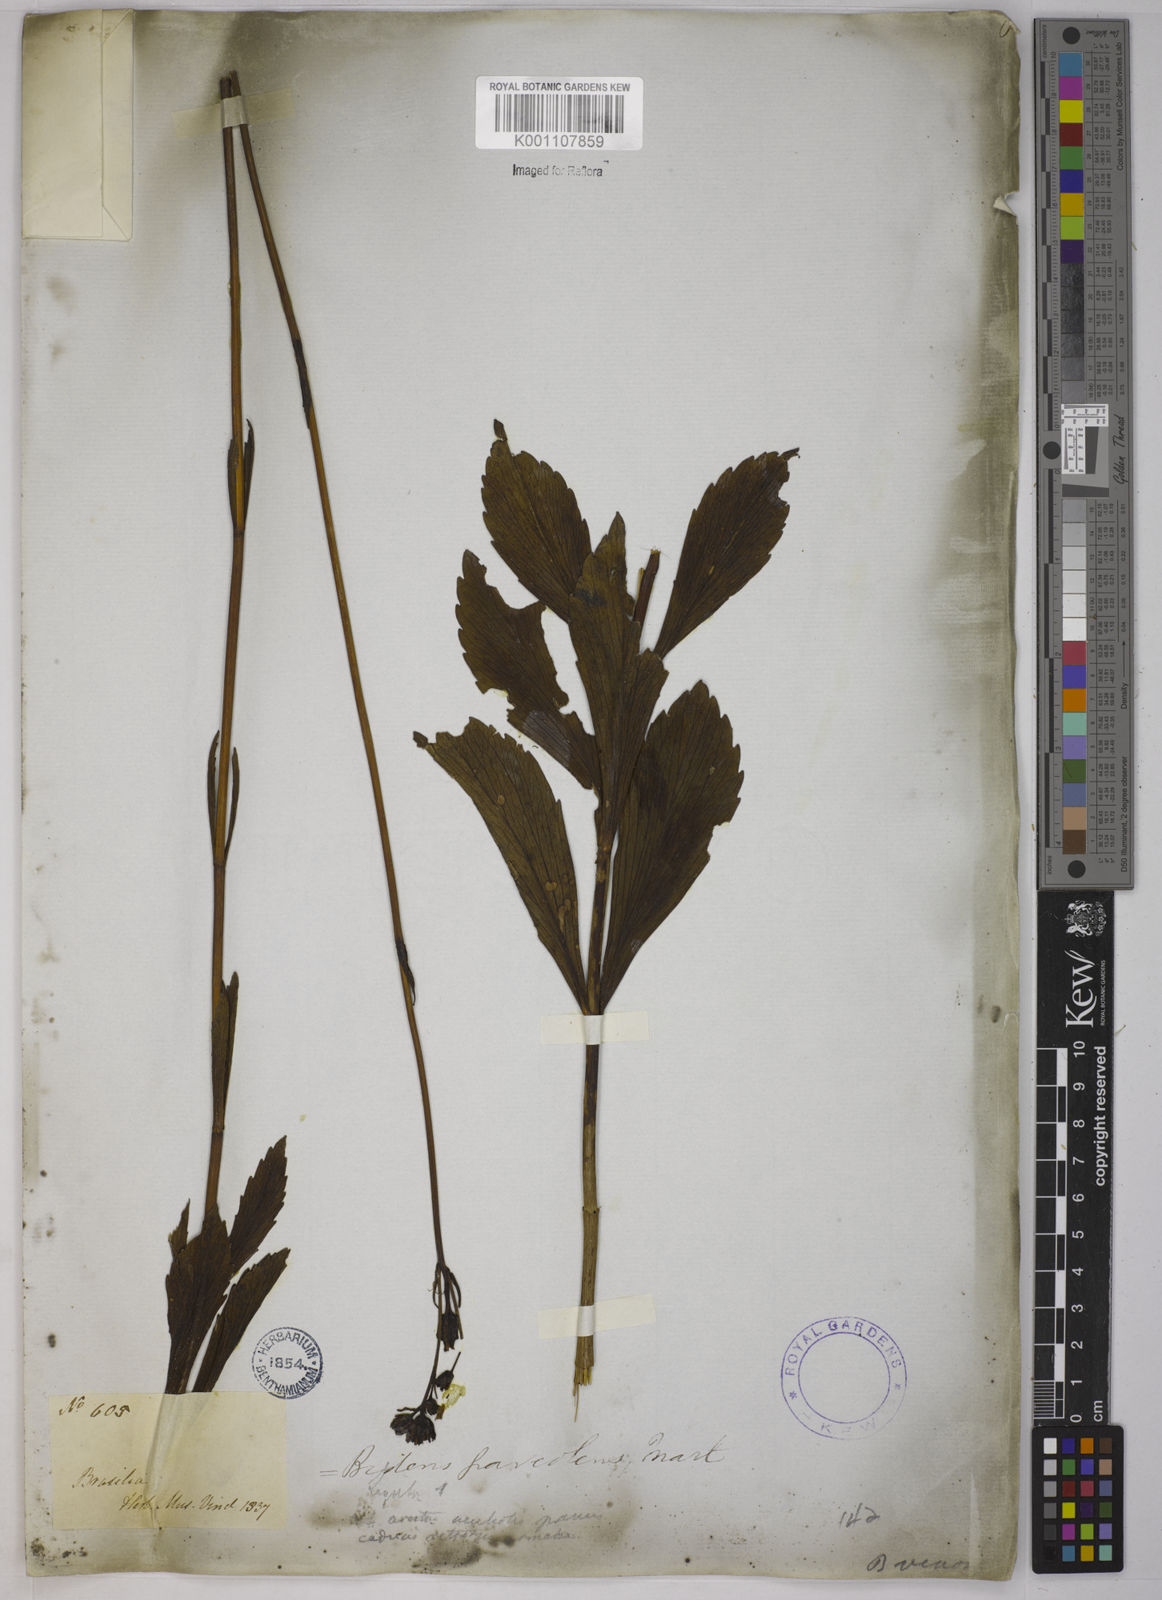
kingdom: Plantae
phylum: Tracheophyta
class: Magnoliopsida
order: Asterales
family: Asteraceae
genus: Bidens
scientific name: Bidens
